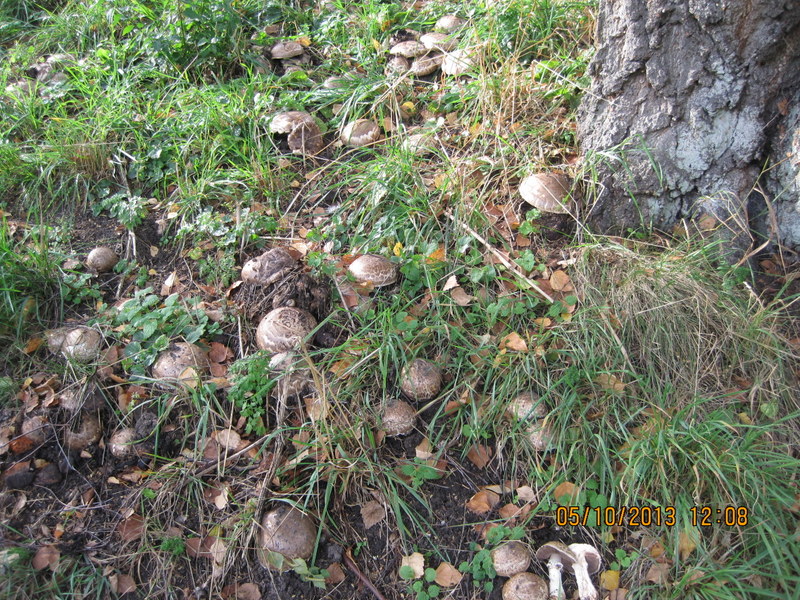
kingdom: Fungi
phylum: Basidiomycota
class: Agaricomycetes
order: Agaricales
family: Agaricaceae
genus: Agaricus
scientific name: Agaricus subperonatus
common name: knippe-champignon
